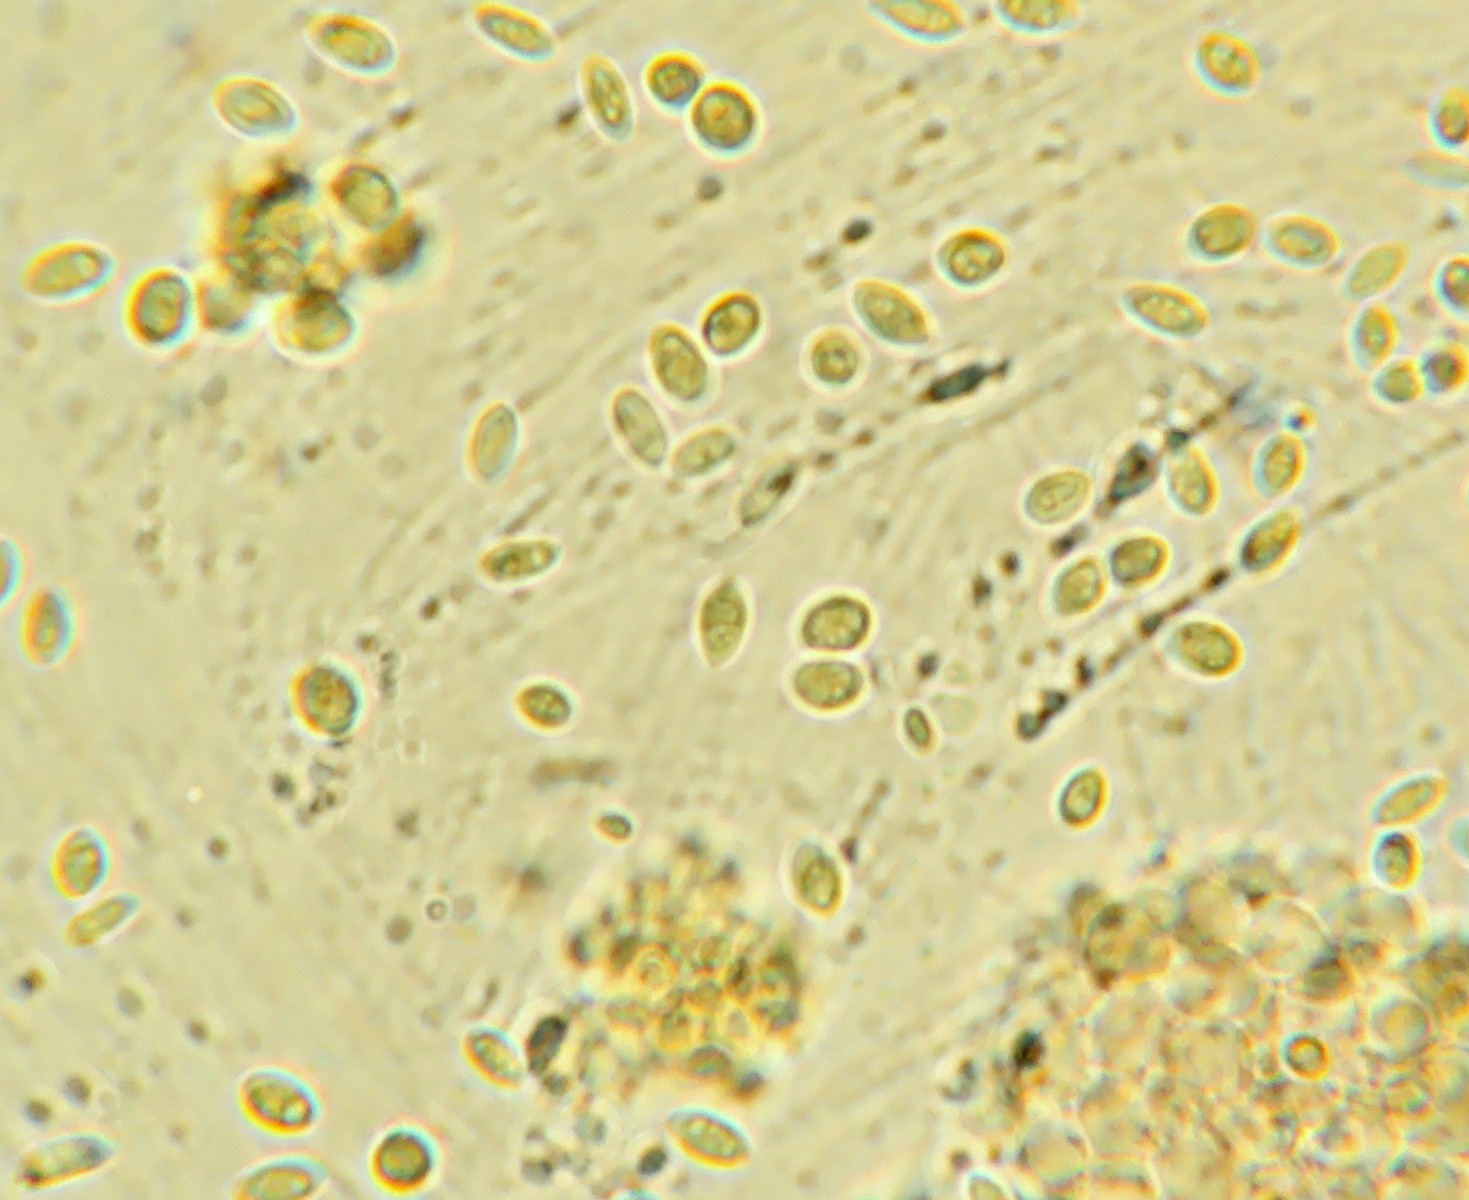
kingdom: Fungi
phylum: Basidiomycota
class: Exobasidiomycetes
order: Microstromatales
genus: Pseudomicrostroma
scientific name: Pseudomicrostroma juglandis
